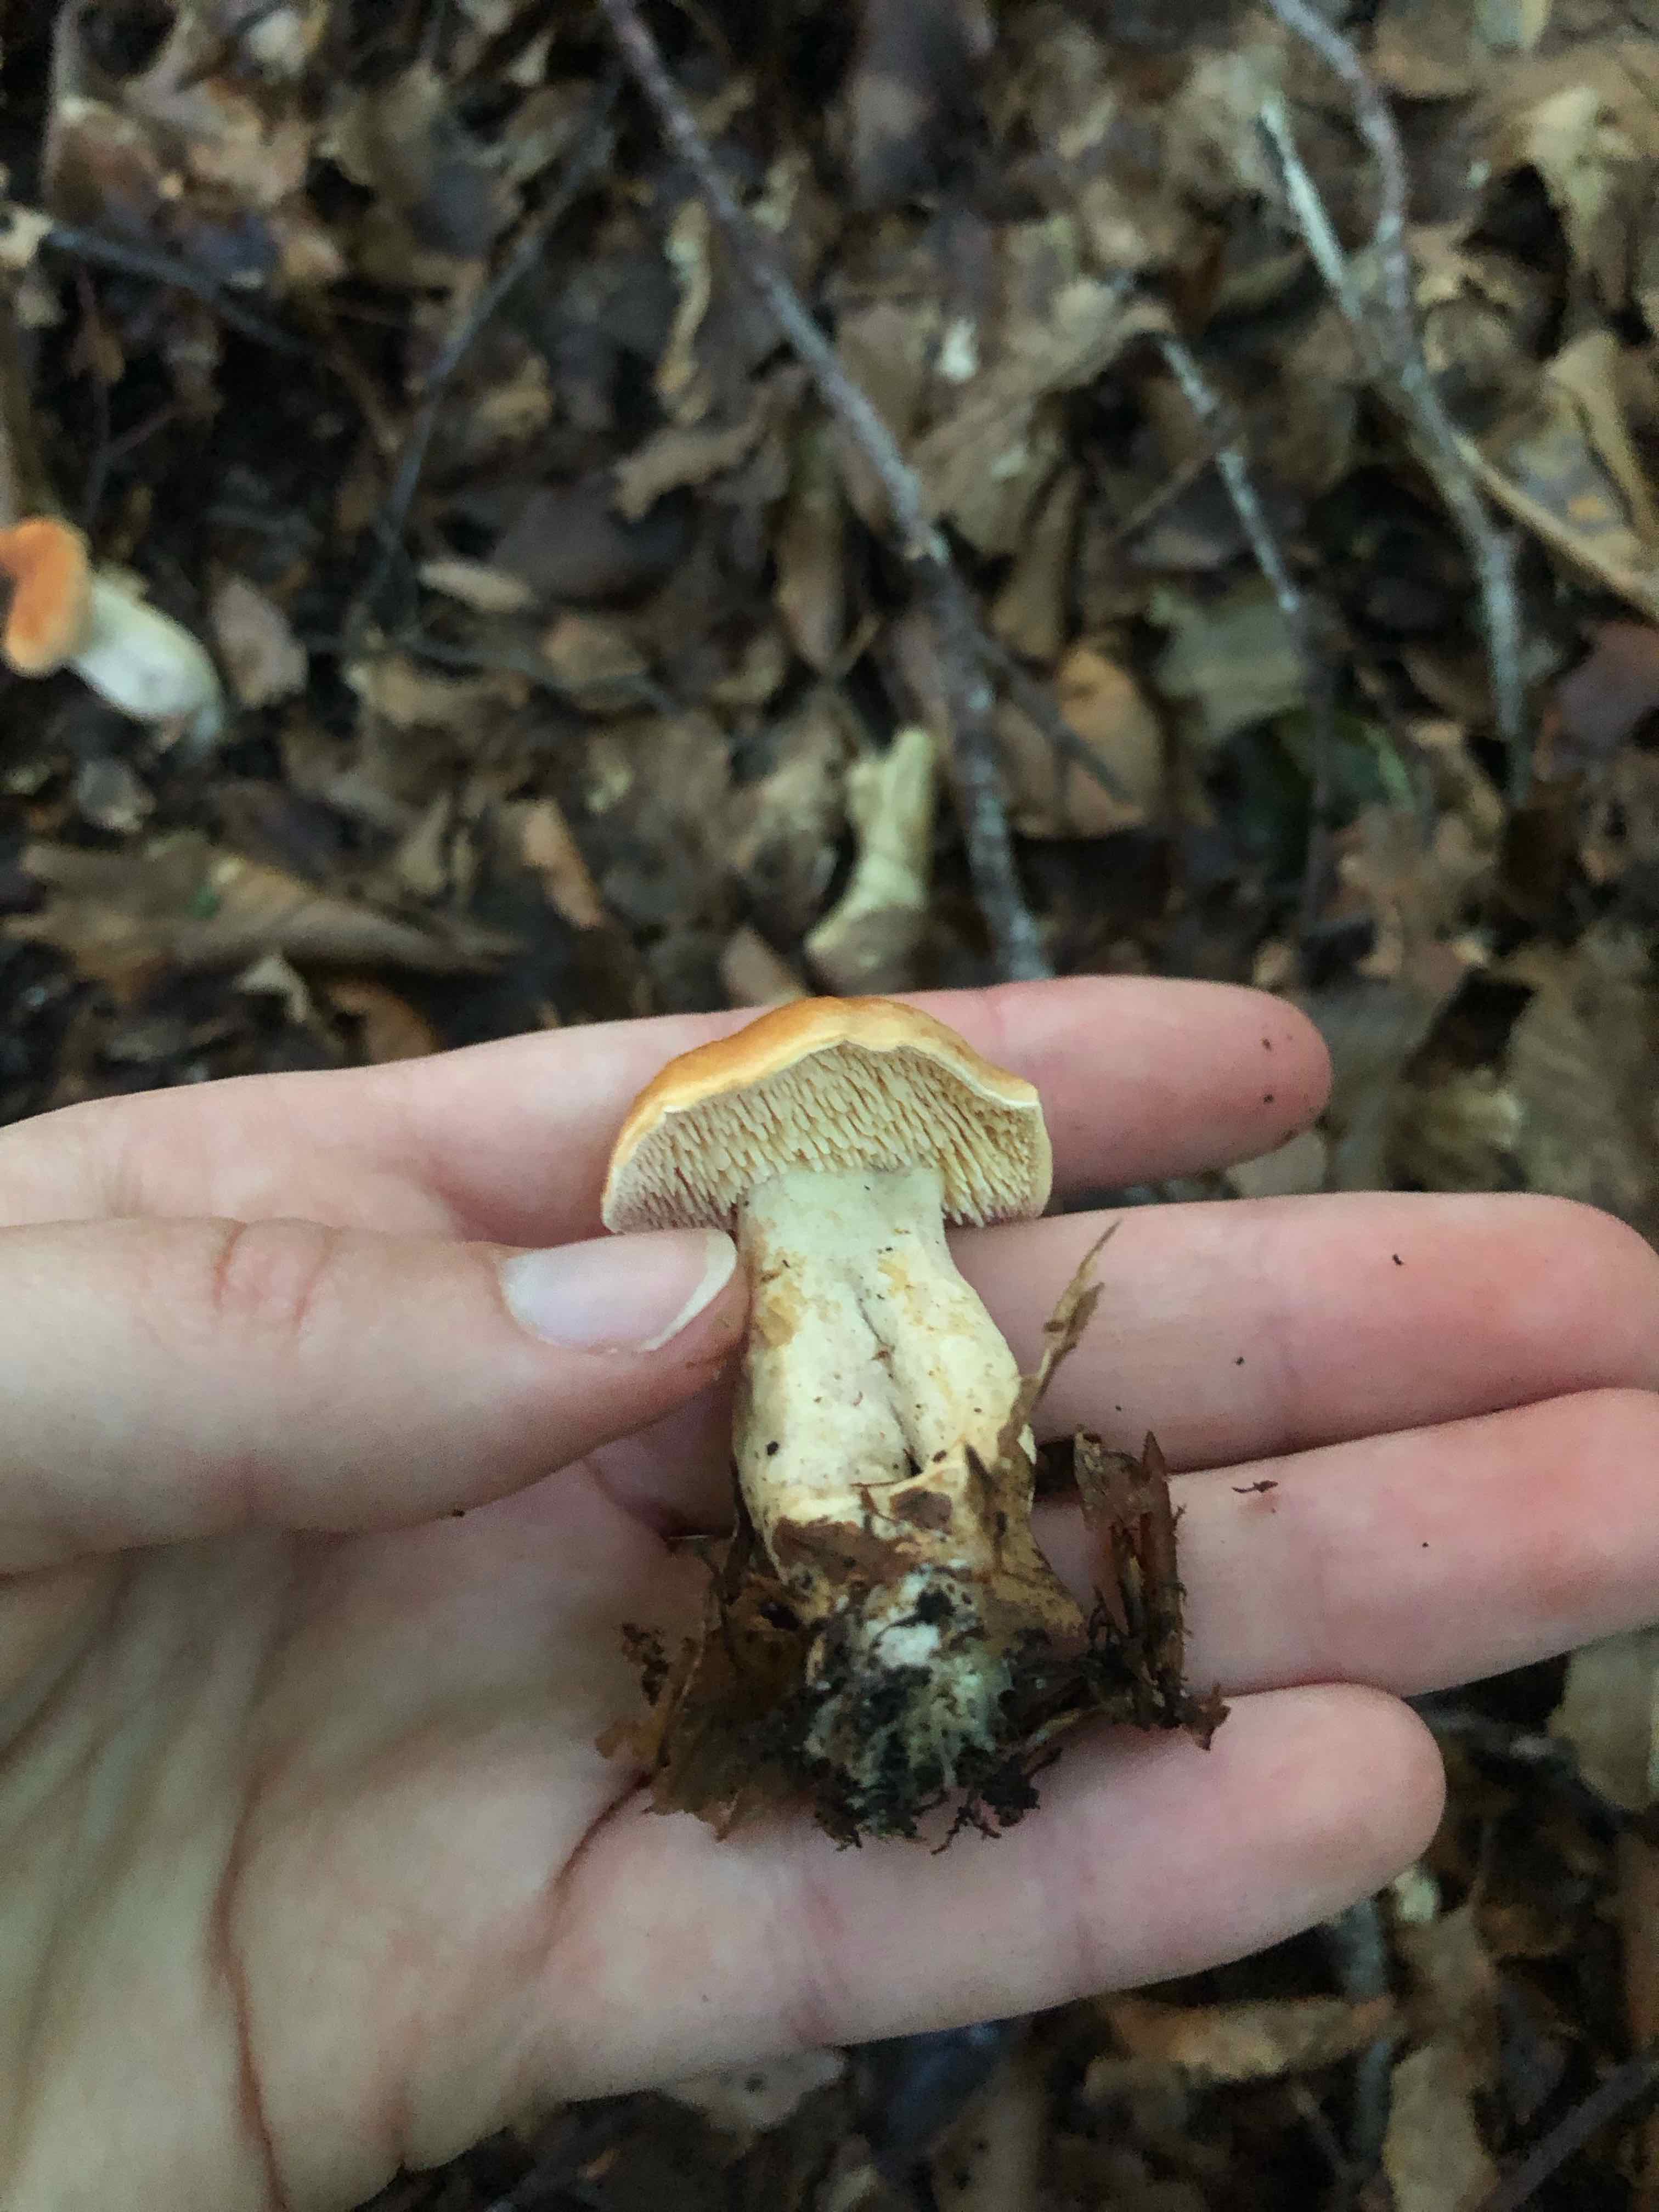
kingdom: Fungi
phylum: Basidiomycota
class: Agaricomycetes
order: Cantharellales
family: Hydnaceae
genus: Hydnum
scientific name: Hydnum rufescens
